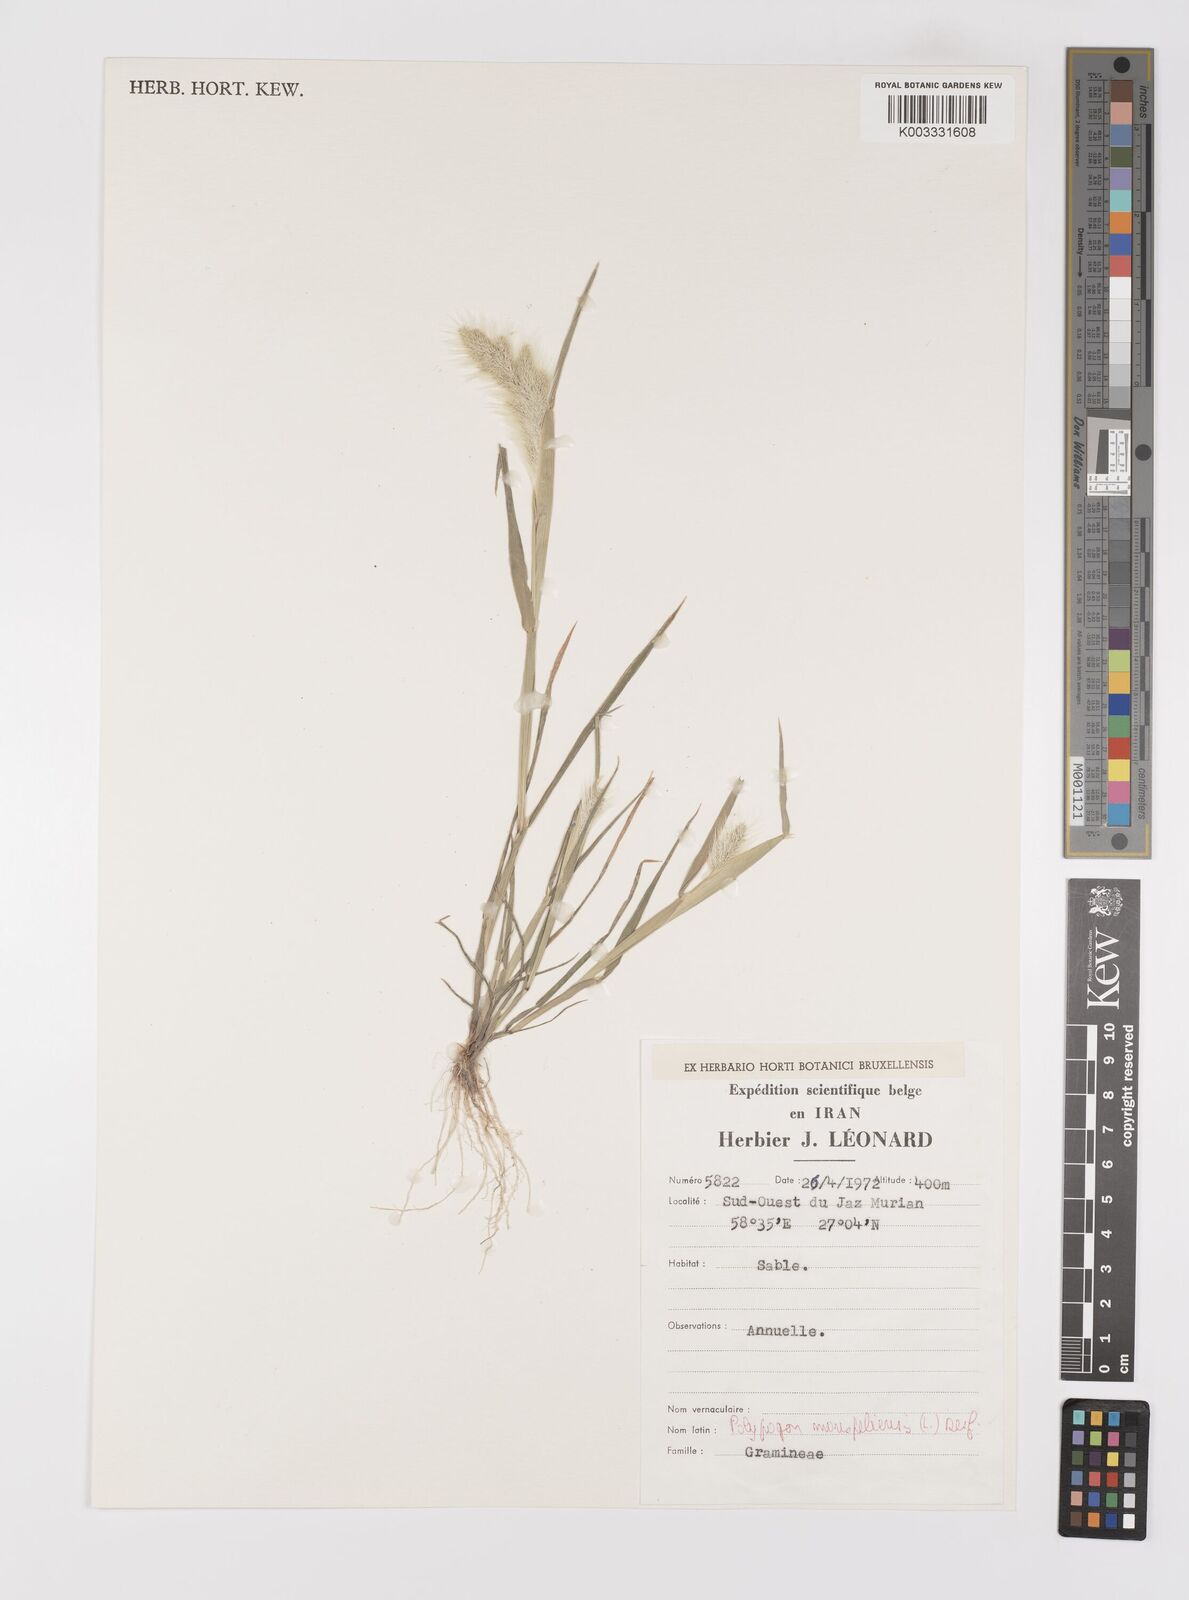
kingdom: Plantae
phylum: Tracheophyta
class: Liliopsida
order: Poales
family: Poaceae
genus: Polypogon
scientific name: Polypogon monspeliensis
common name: Annual rabbitsfoot grass
